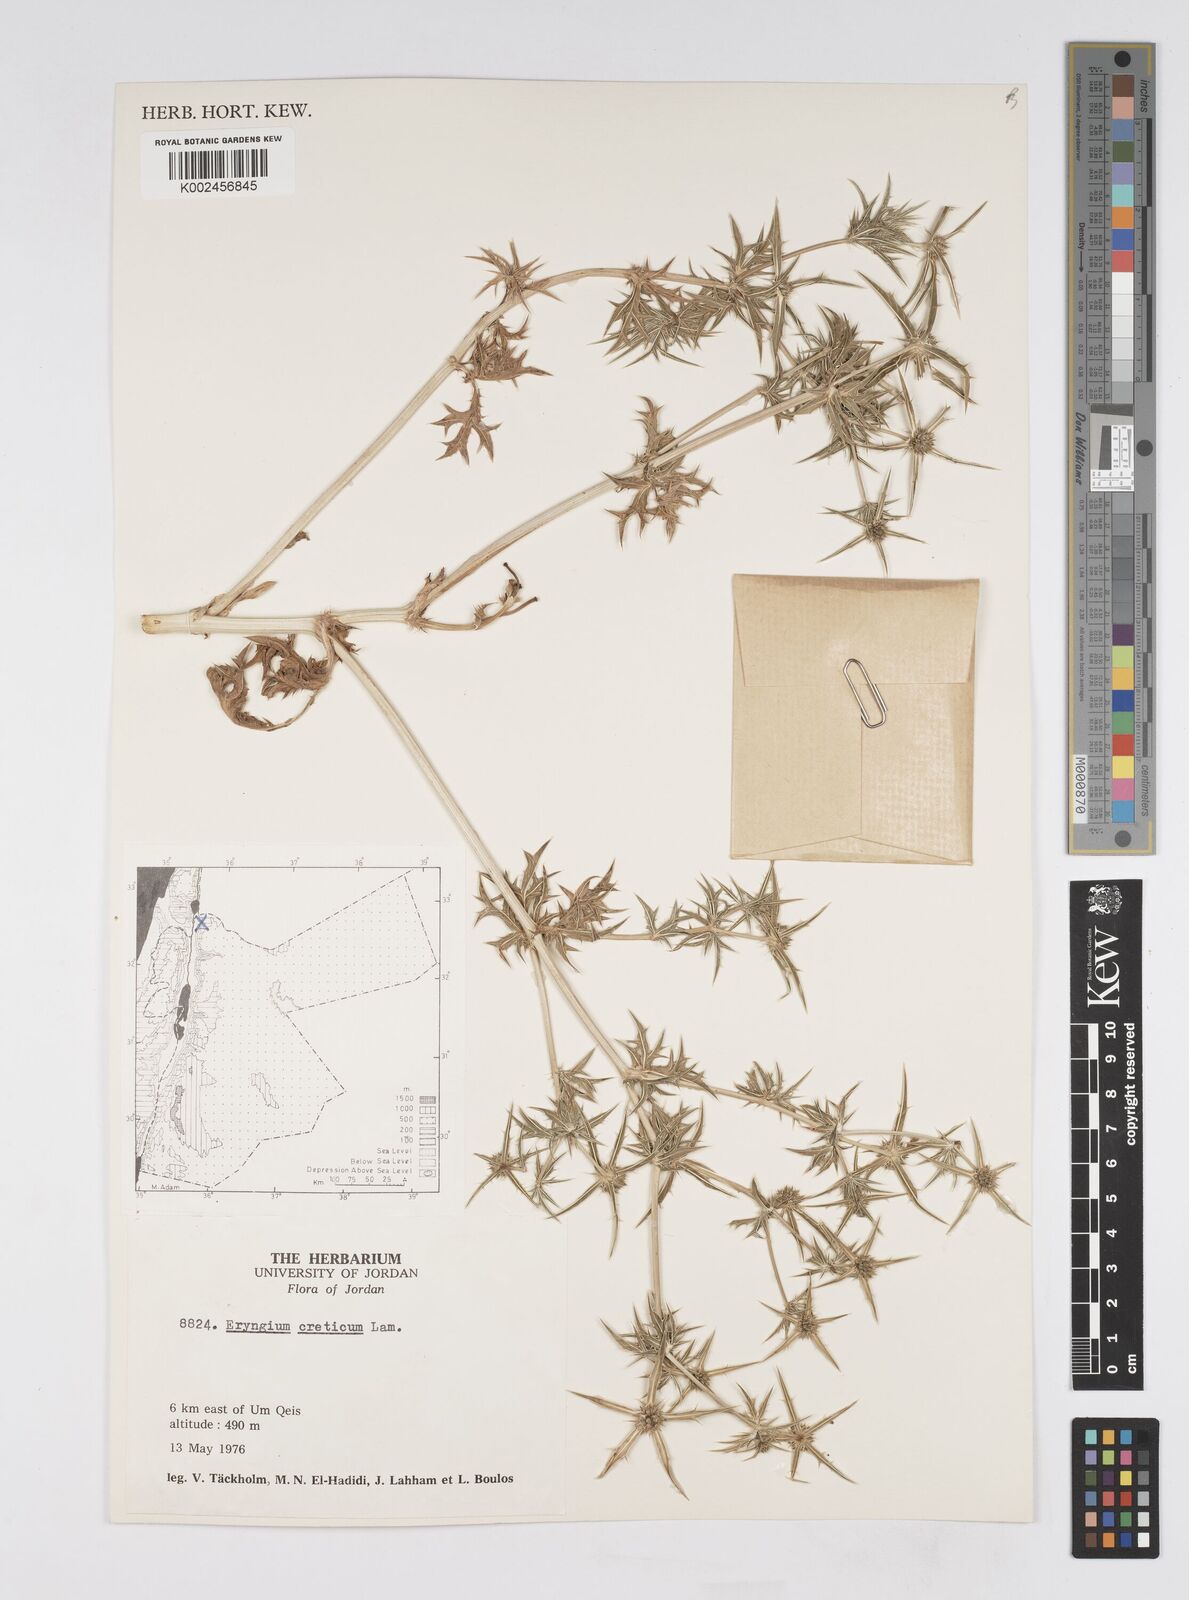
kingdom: Plantae
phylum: Tracheophyta
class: Magnoliopsida
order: Apiales
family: Apiaceae
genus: Eryngium
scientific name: Eryngium creticum
